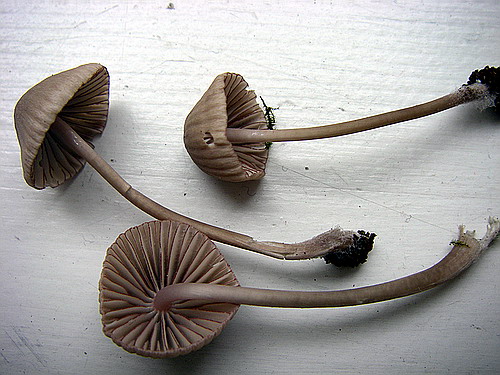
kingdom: Fungi
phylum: Basidiomycota
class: Agaricomycetes
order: Agaricales
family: Mycenaceae
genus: Mycena
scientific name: Mycena rubromarginata
